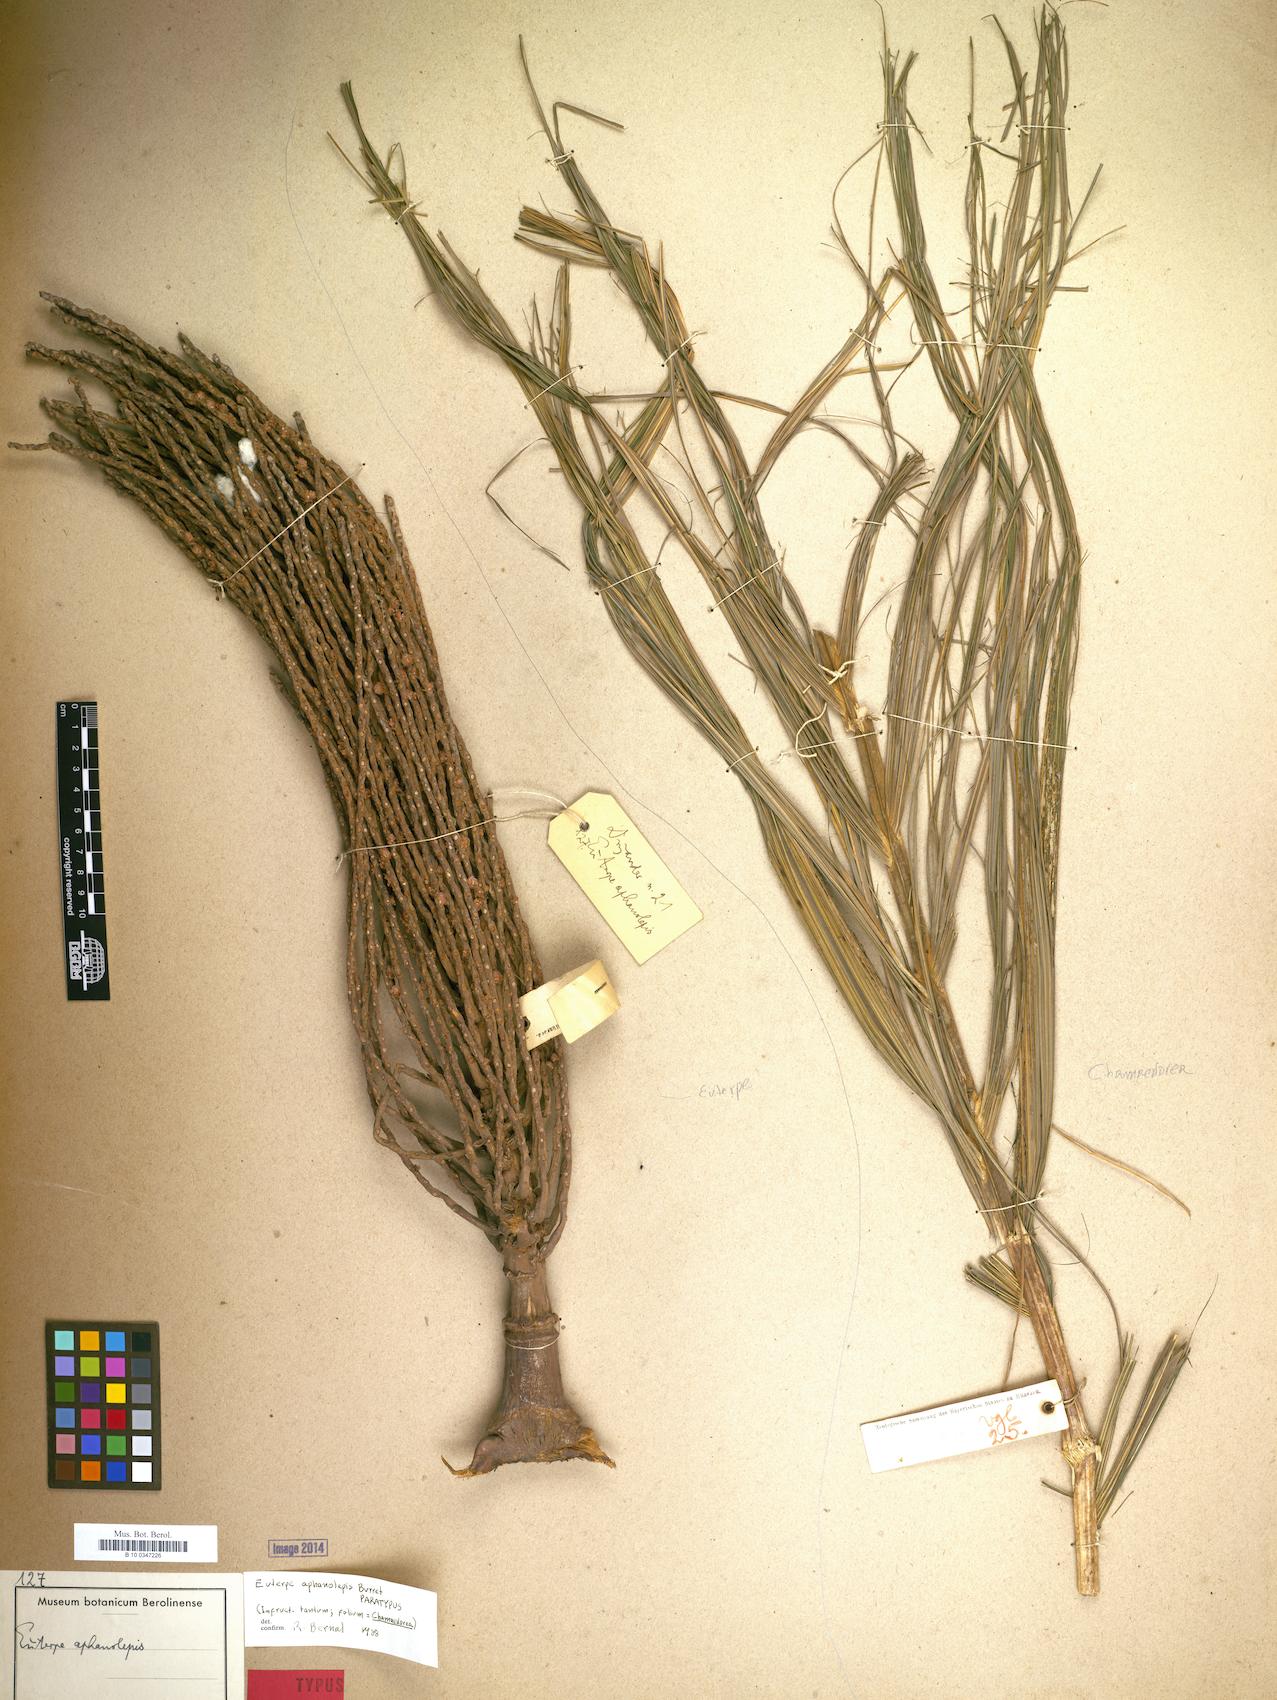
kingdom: Plantae
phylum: Tracheophyta
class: Liliopsida
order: Arecales
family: Arecaceae
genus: Prestoea
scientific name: Prestoea acuminata
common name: Sierran palm
